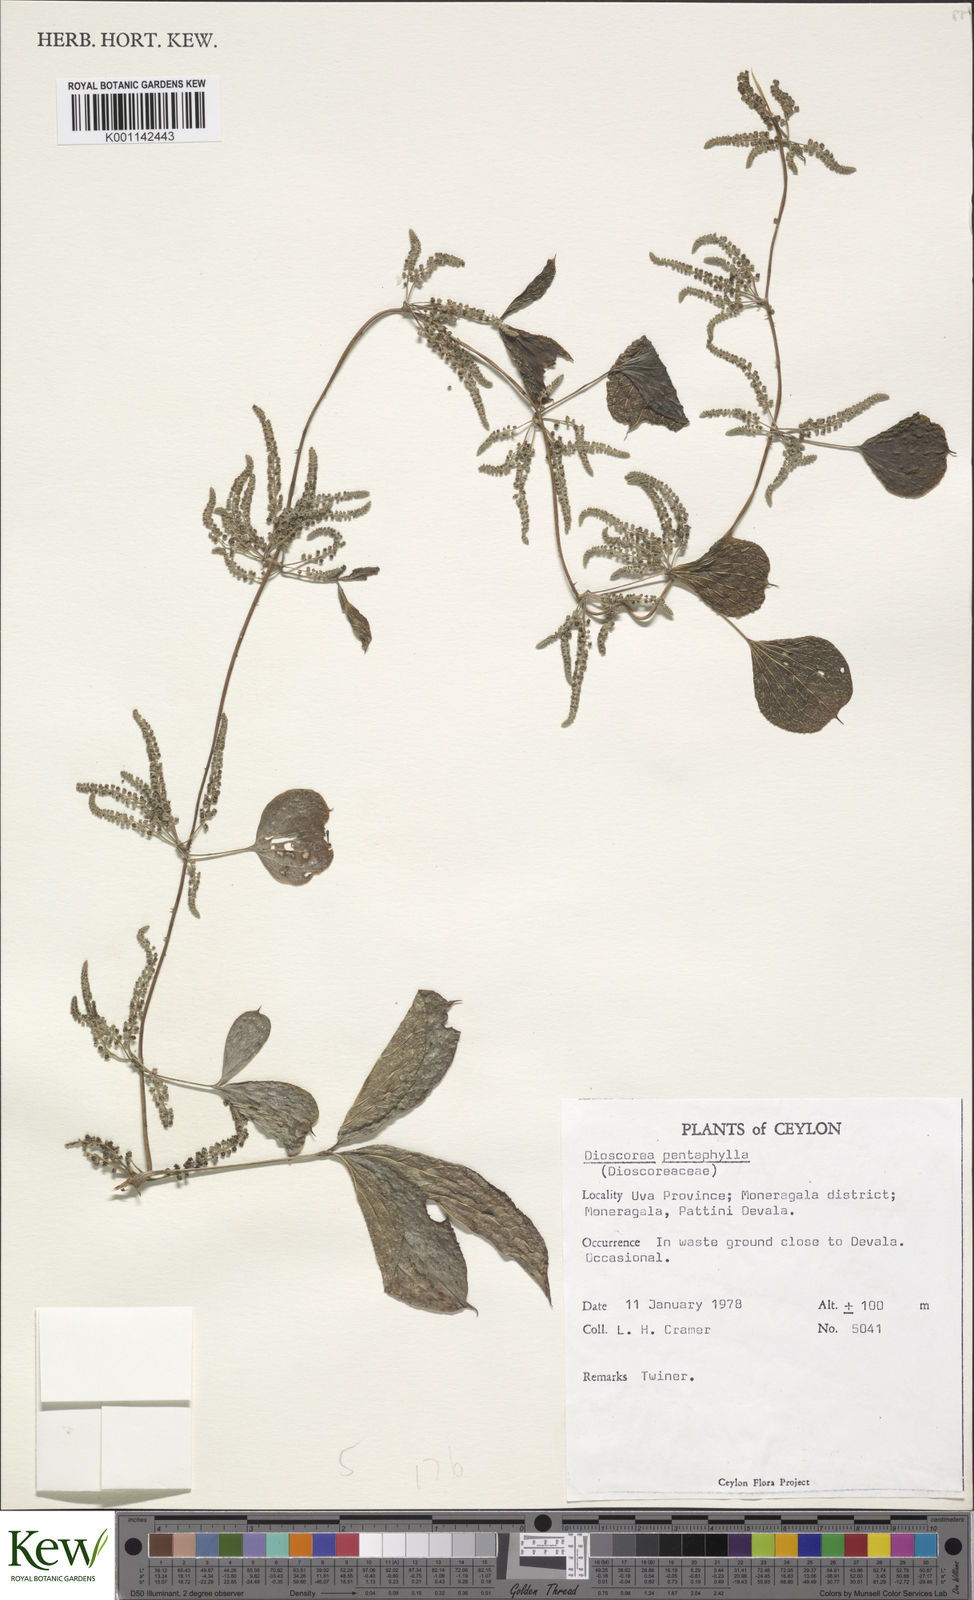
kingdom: Plantae
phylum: Tracheophyta
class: Liliopsida
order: Dioscoreales
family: Dioscoreaceae
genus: Dioscorea
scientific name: Dioscorea pentaphylla
